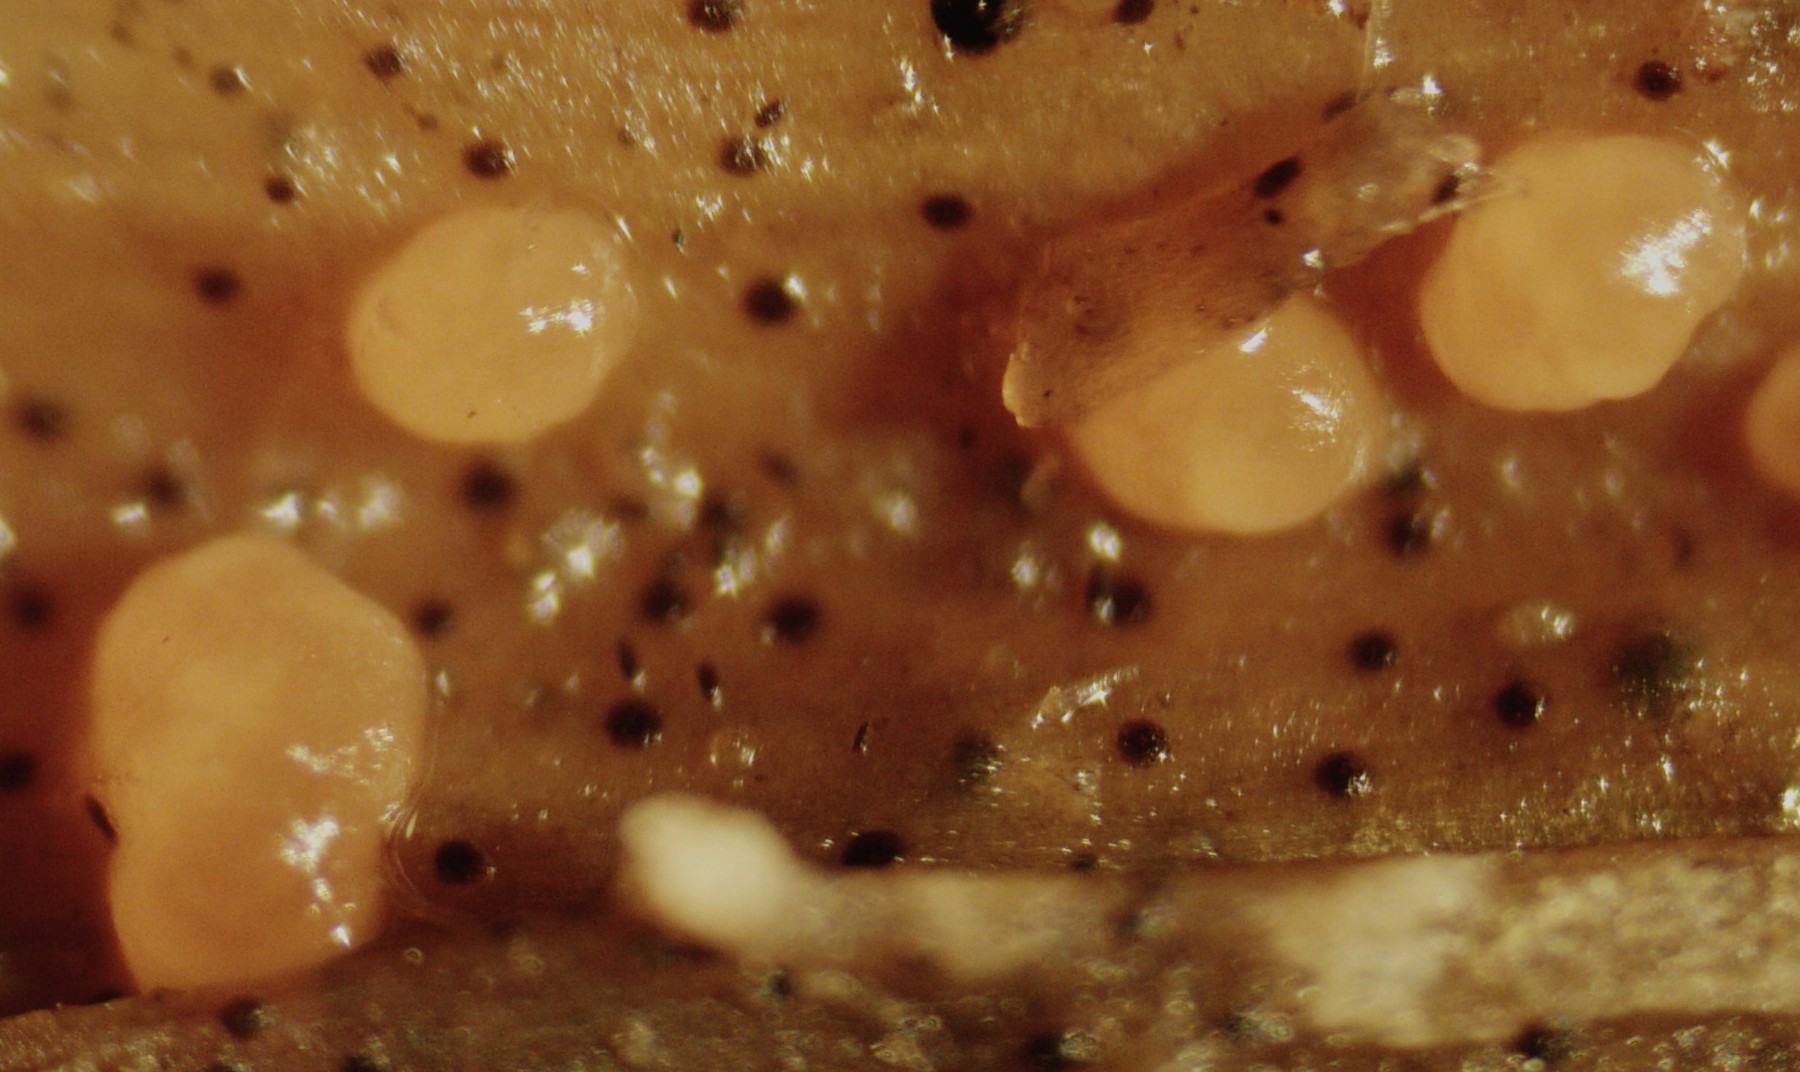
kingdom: Fungi
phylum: Ascomycota
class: Leotiomycetes
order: Helotiales
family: Calloriaceae
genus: Calloria
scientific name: Calloria urticae
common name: nælde-orangeskive
